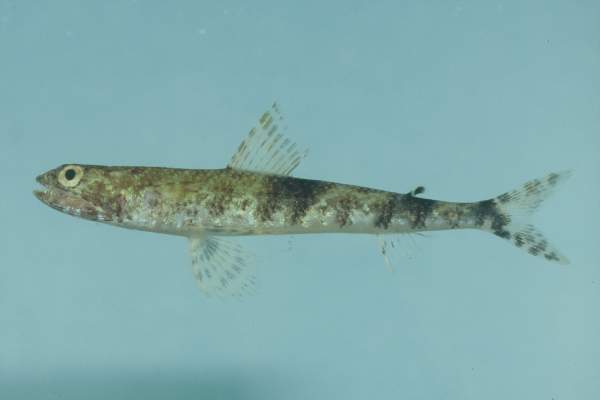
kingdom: Animalia
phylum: Chordata
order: Aulopiformes
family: Synodontidae
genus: Saurida
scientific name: Saurida gracilis
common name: Slender lizardfish
